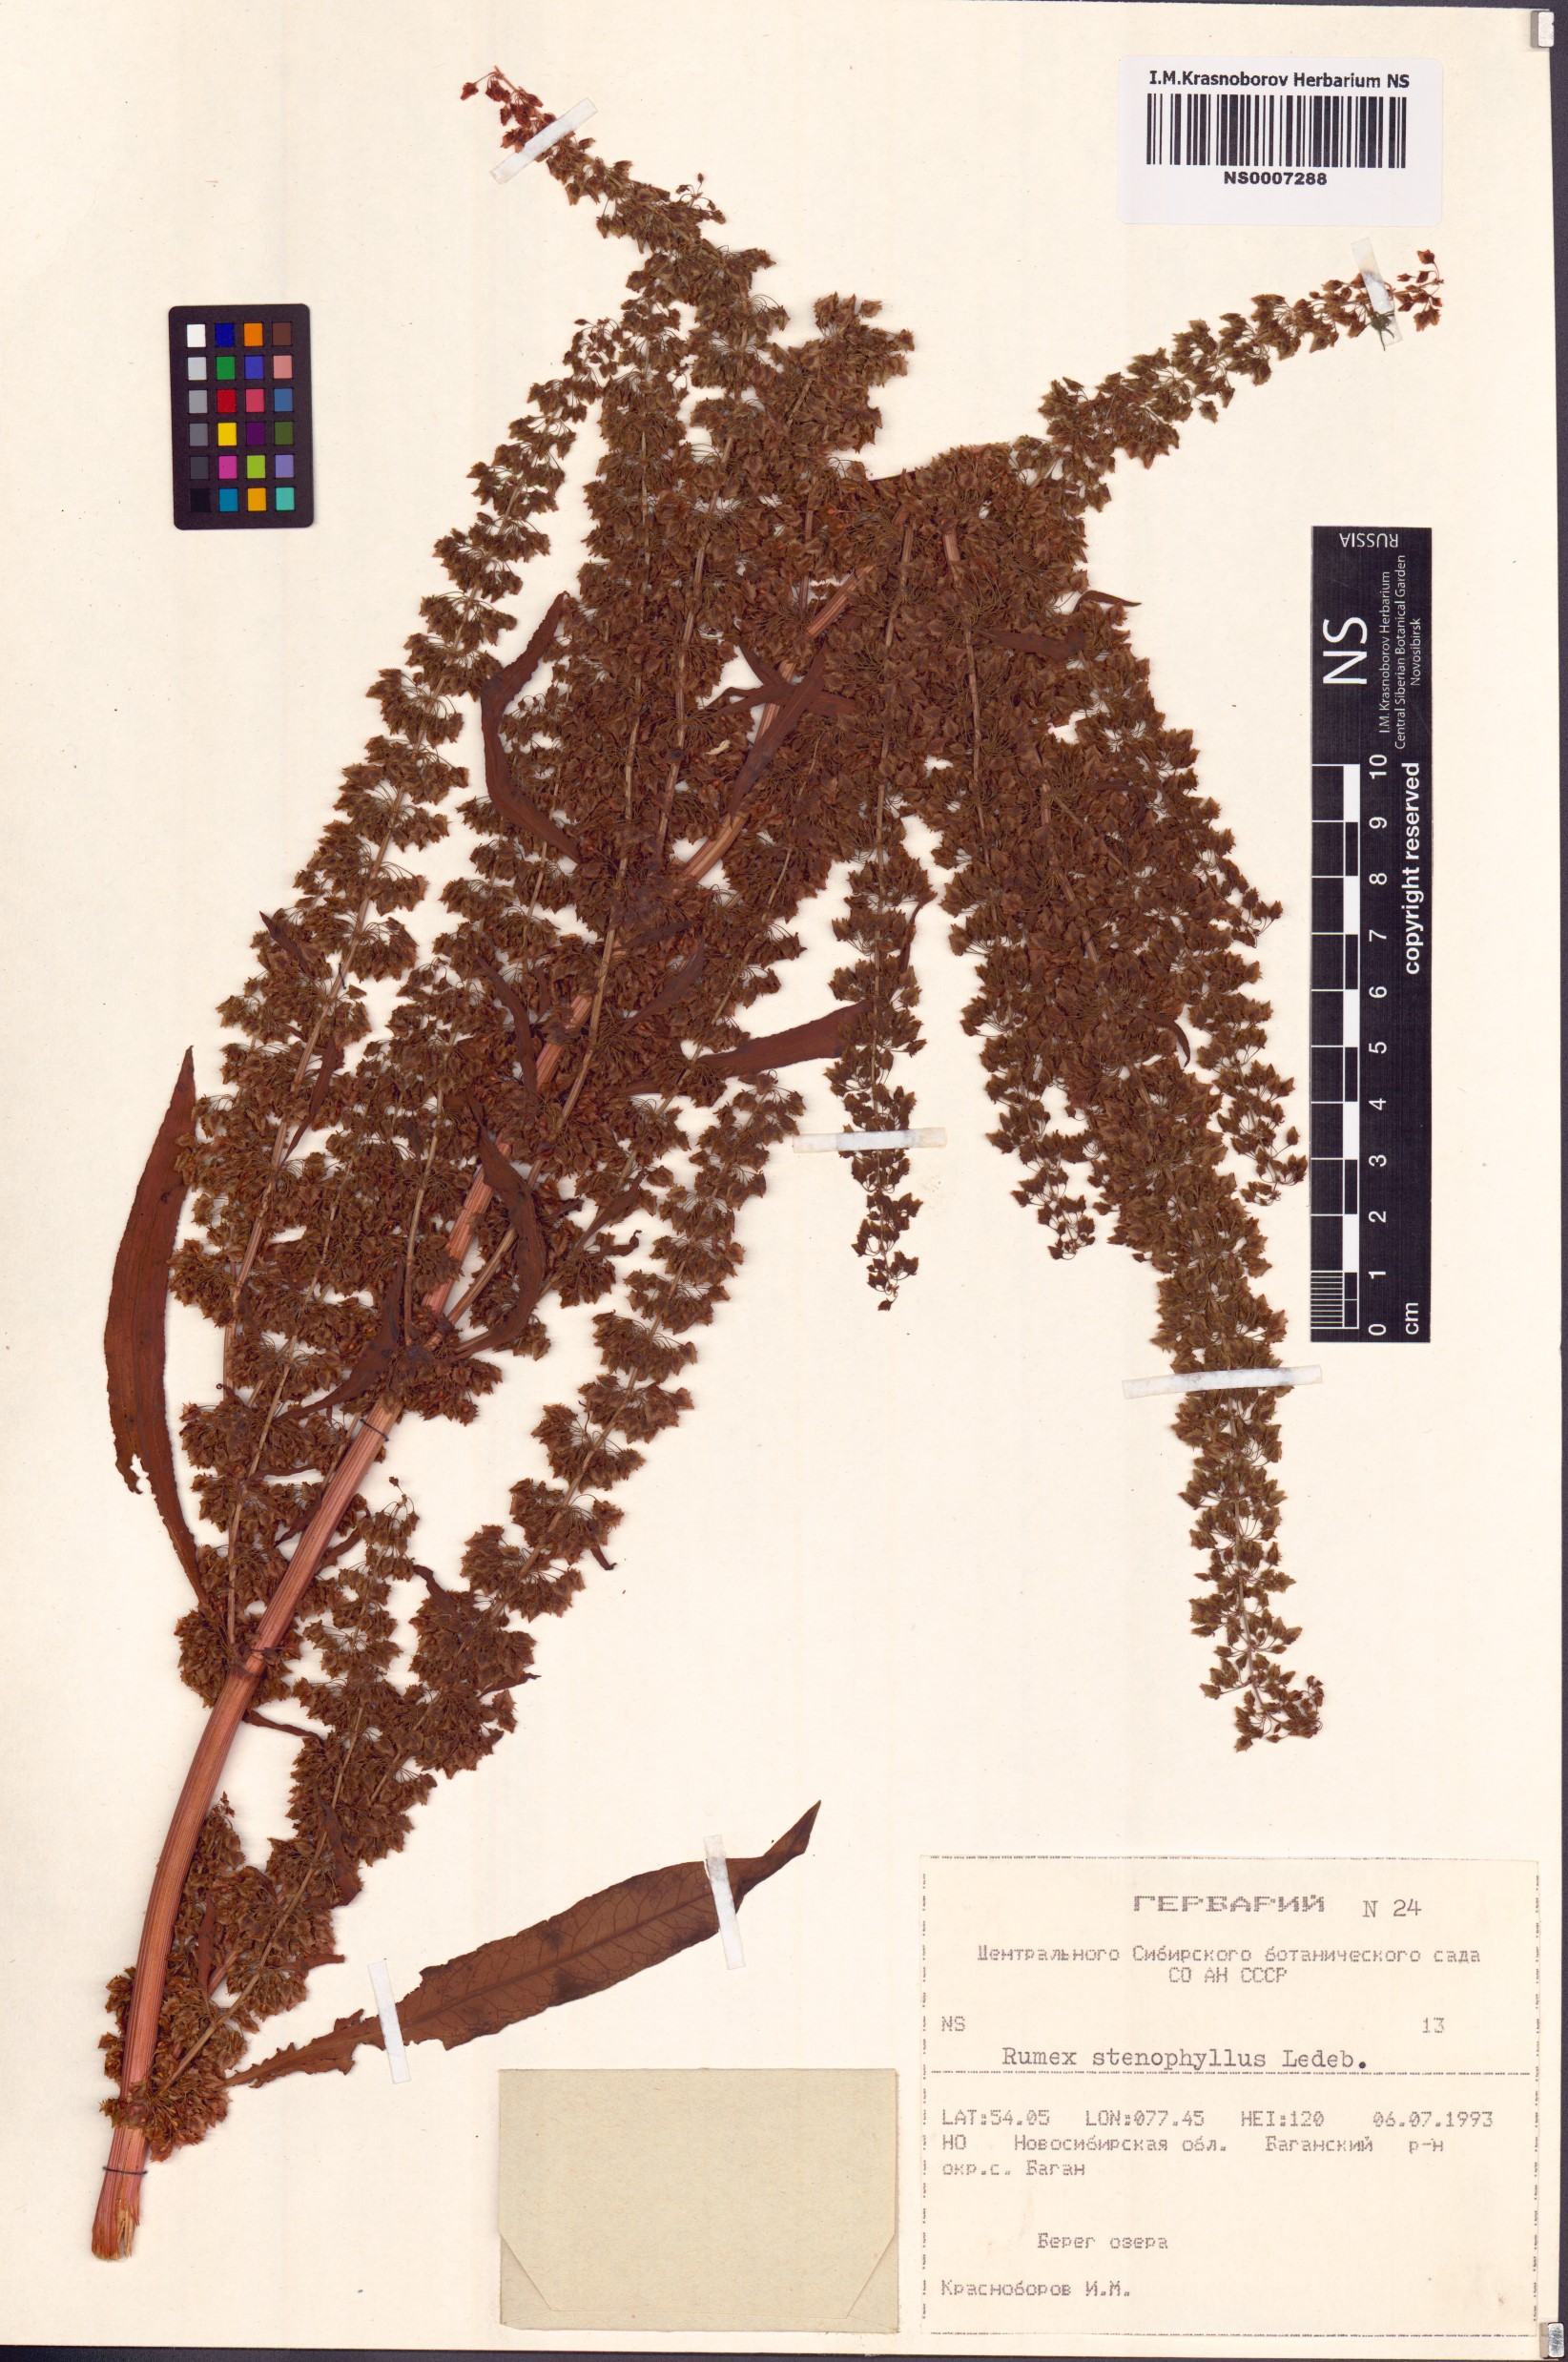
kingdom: Plantae
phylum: Tracheophyta
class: Magnoliopsida
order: Caryophyllales
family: Polygonaceae
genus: Rumex
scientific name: Rumex stenophyllus
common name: Narrowleaf dock
